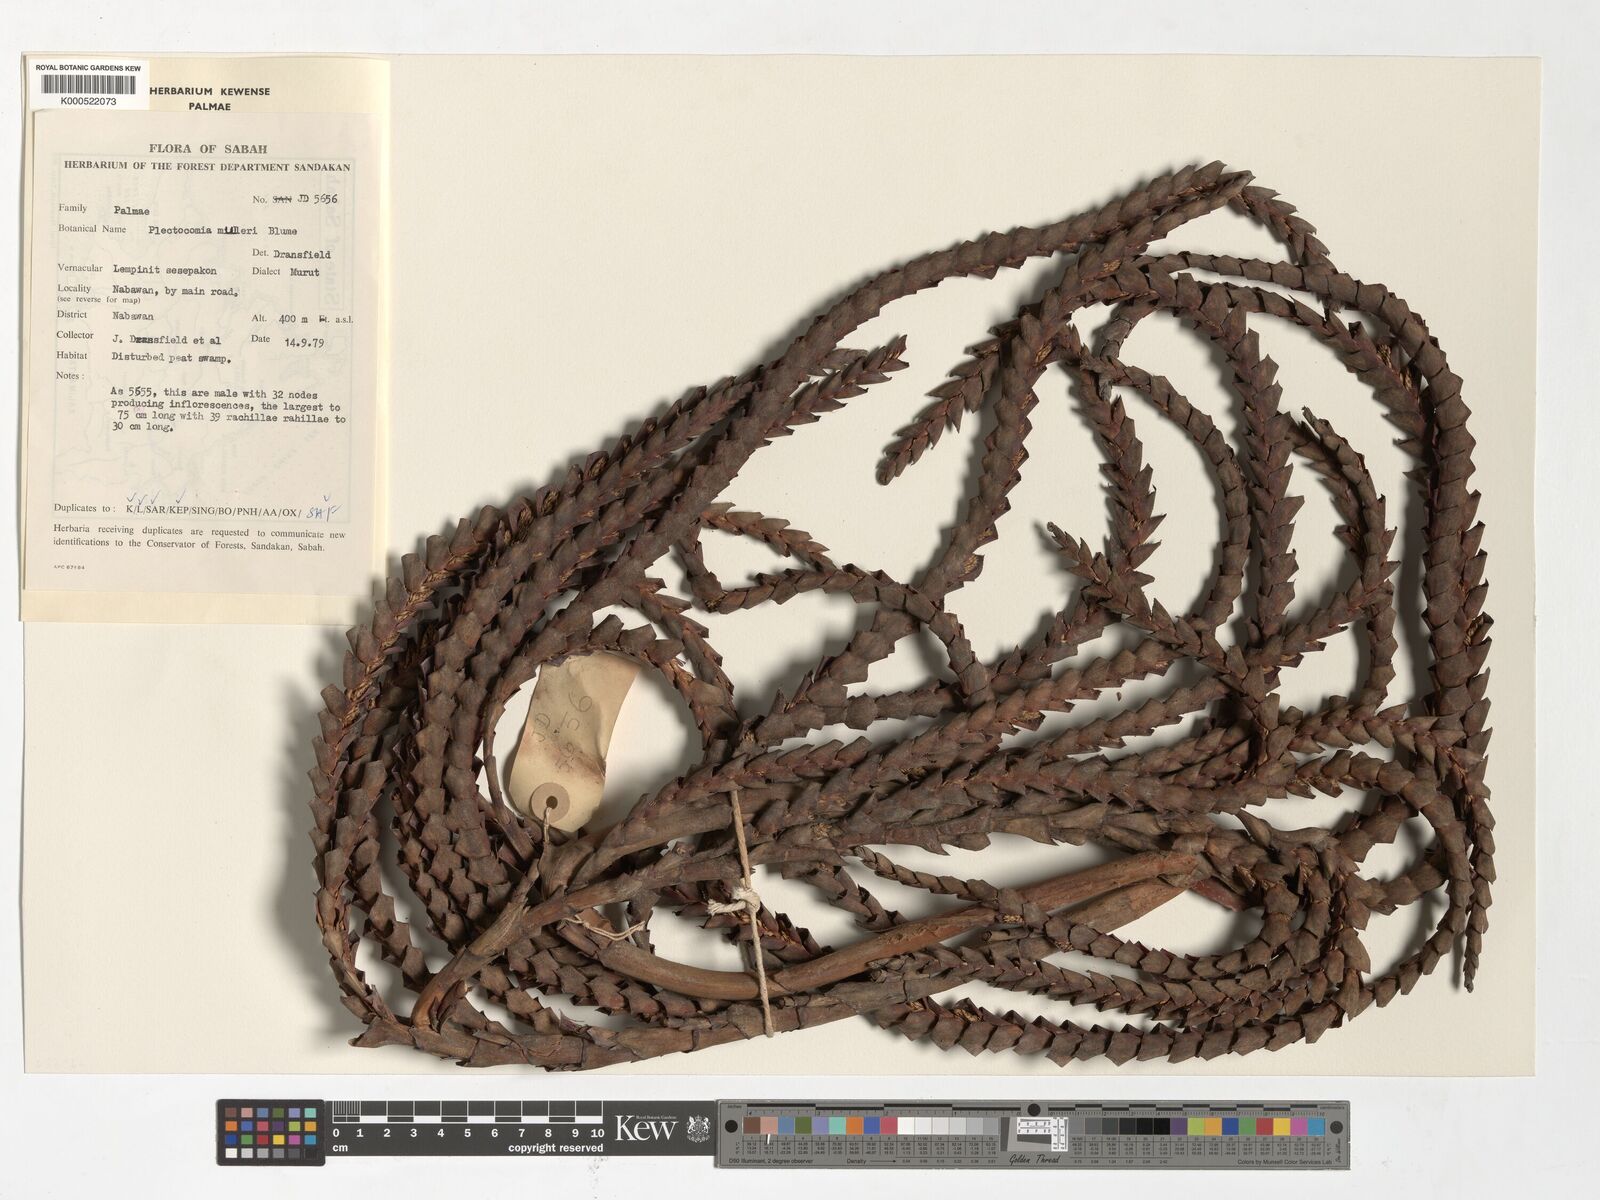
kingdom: Plantae
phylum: Tracheophyta
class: Liliopsida
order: Arecales
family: Arecaceae
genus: Plectocomia
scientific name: Plectocomia mulleri
